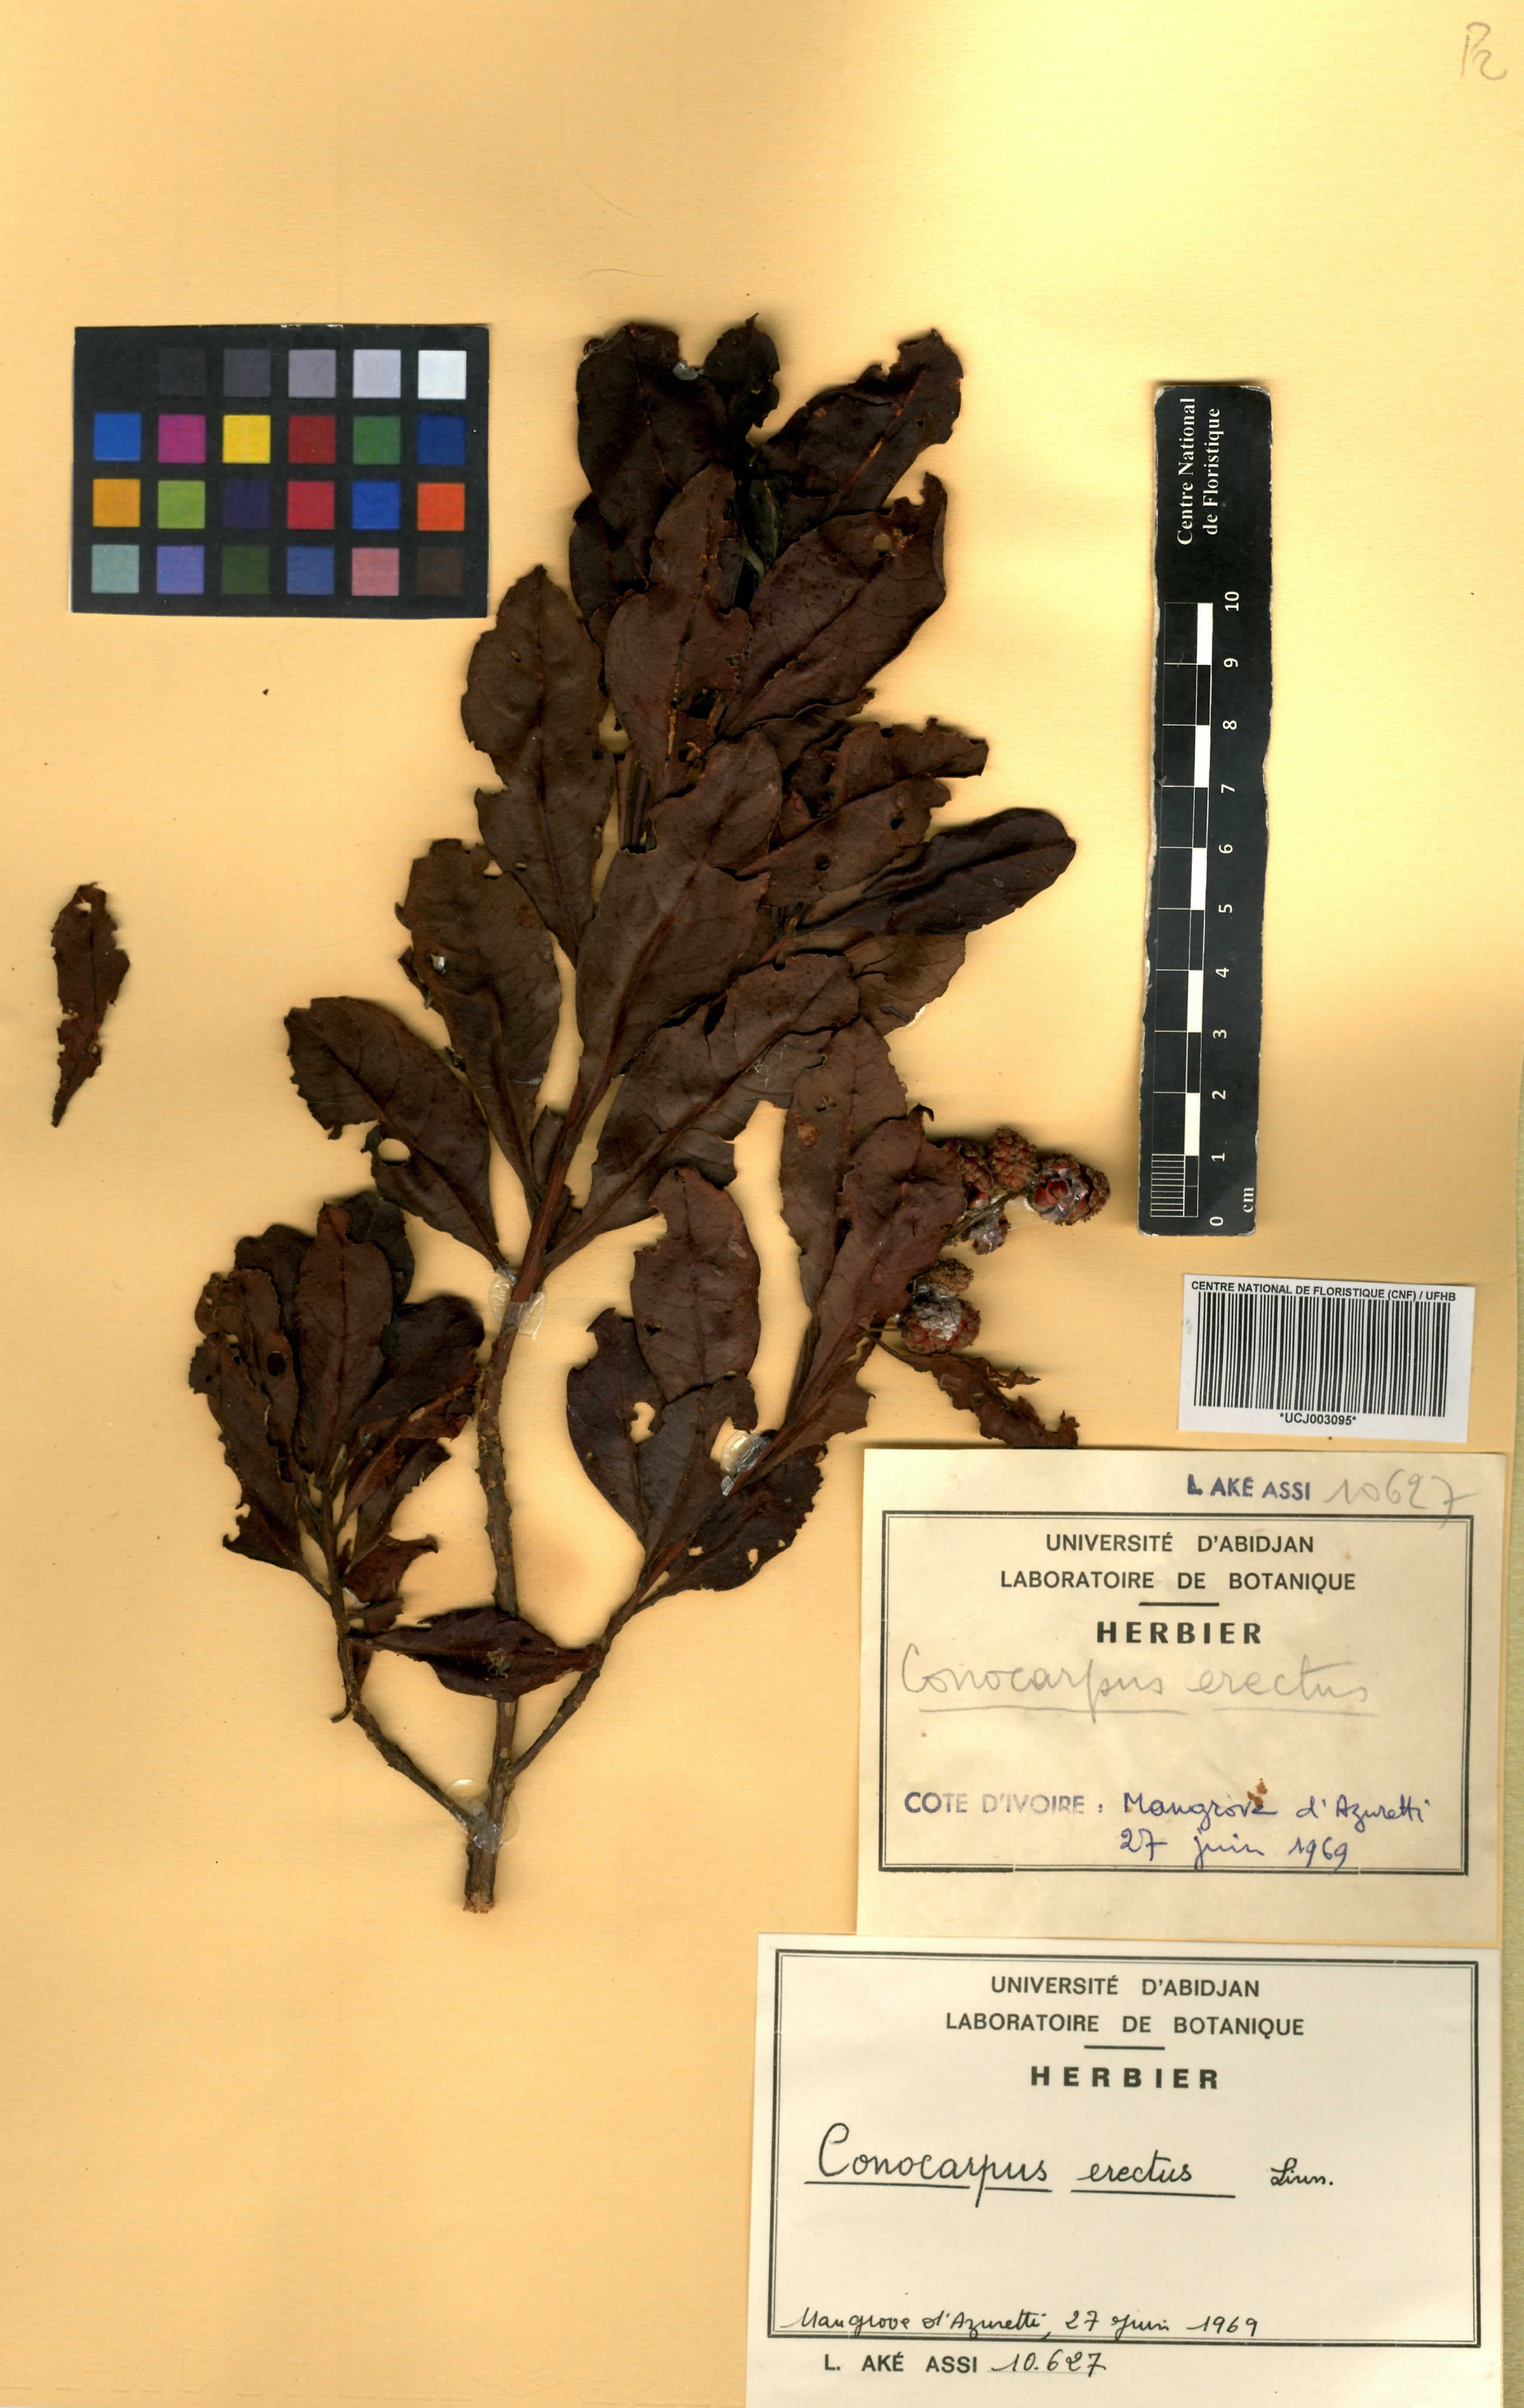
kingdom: Plantae
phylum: Tracheophyta
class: Magnoliopsida
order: Myrtales
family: Combretaceae
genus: Conocarpus
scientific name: Conocarpus erectus
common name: Button mangrove
